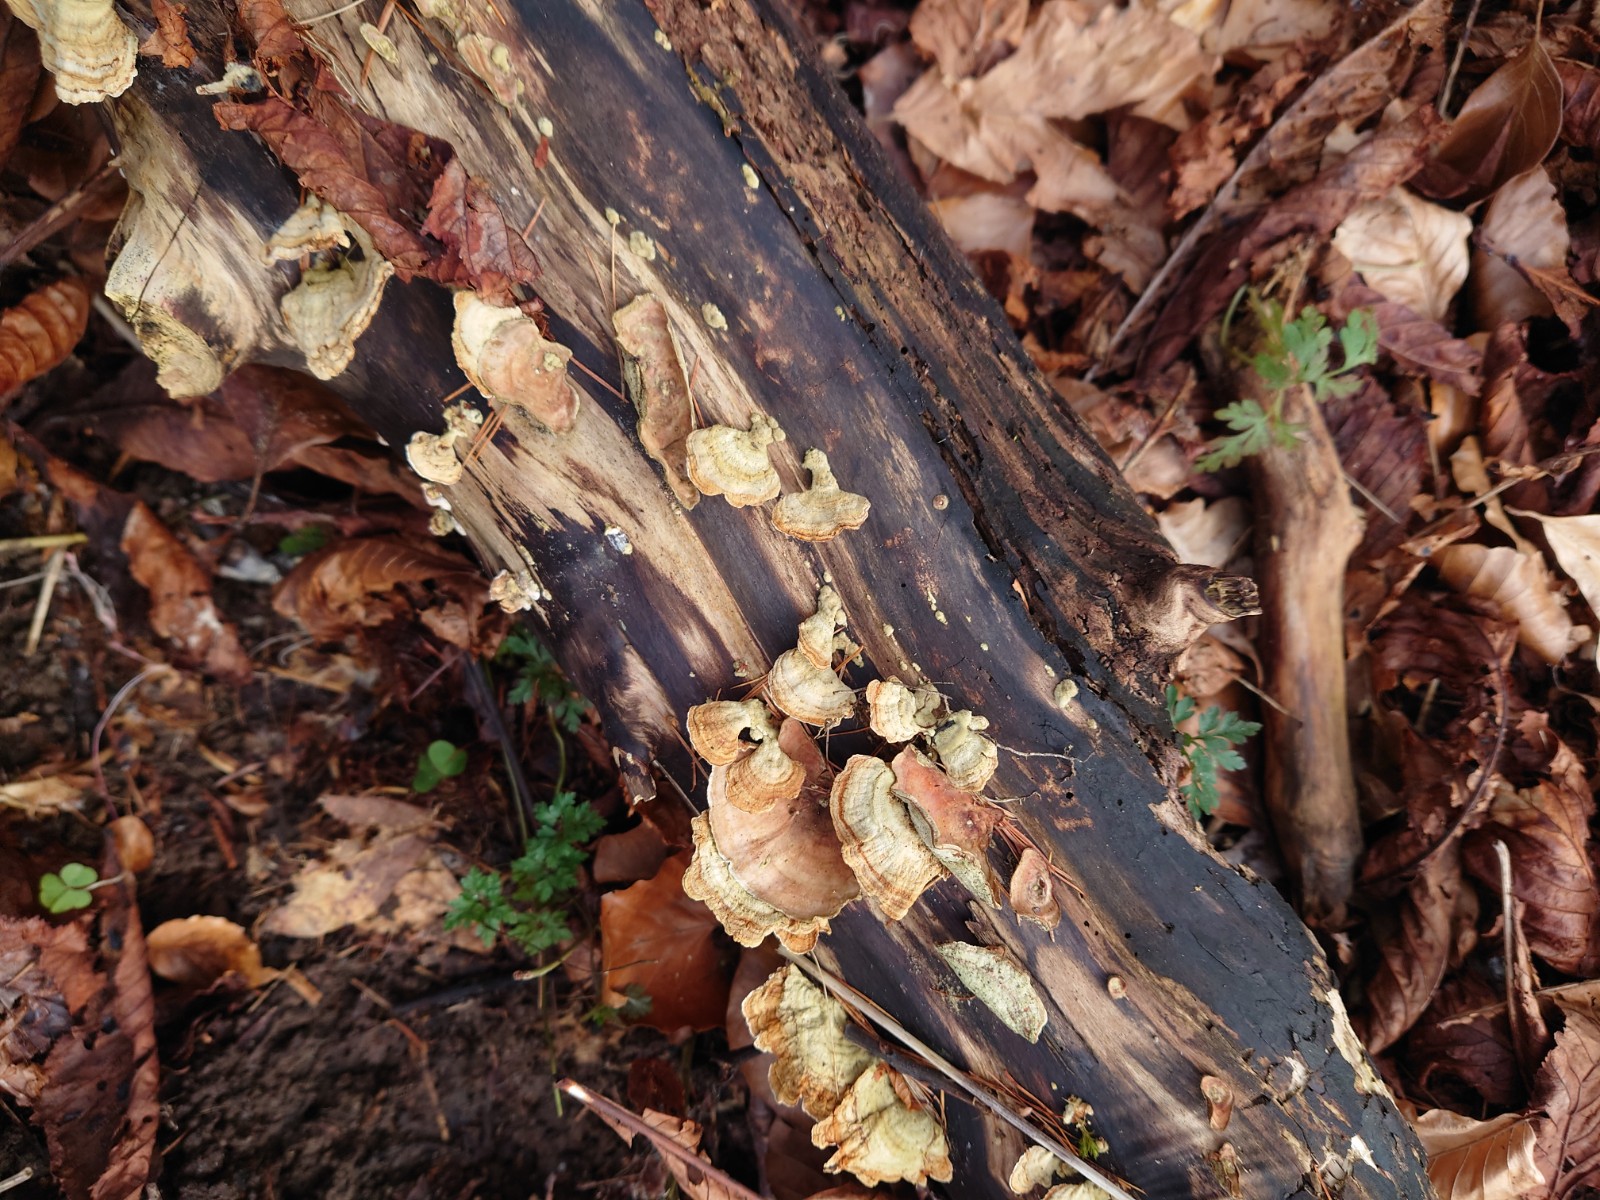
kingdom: Fungi
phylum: Basidiomycota
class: Agaricomycetes
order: Russulales
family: Stereaceae
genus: Stereum
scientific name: Stereum subtomentosum
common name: smuk lædersvamp
